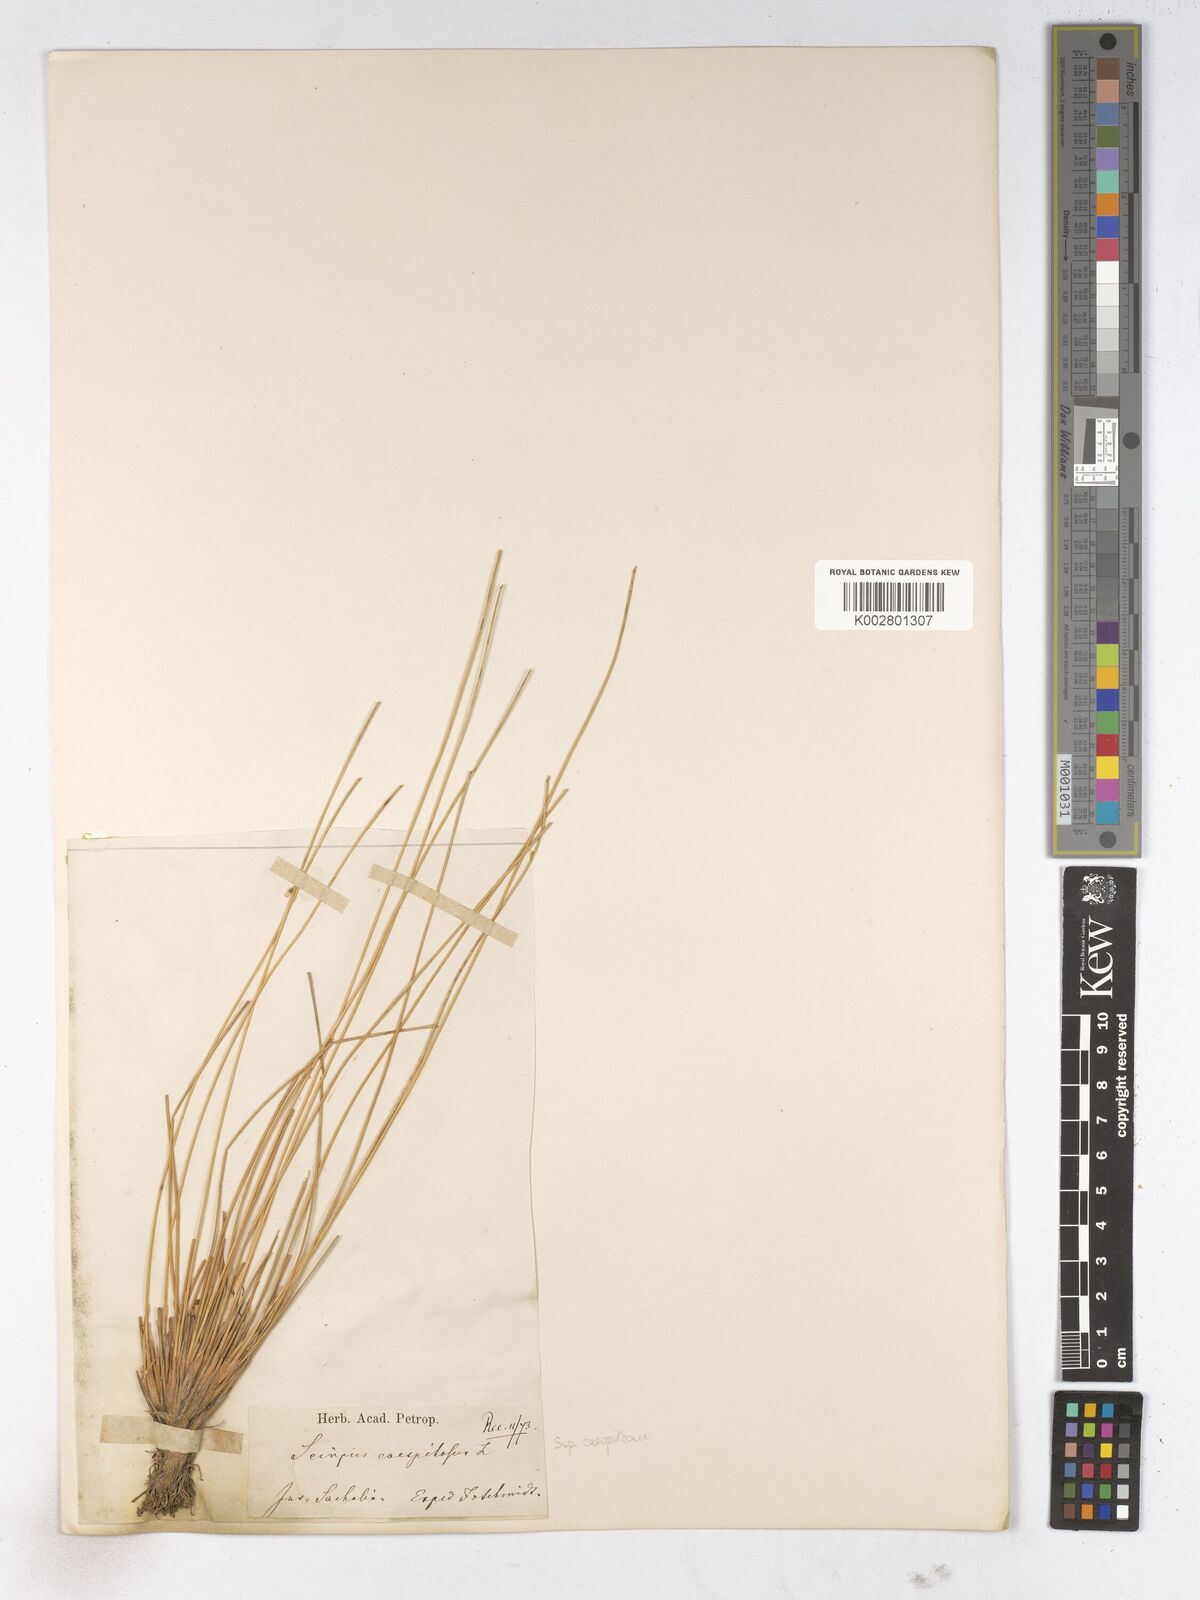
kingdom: Plantae
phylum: Tracheophyta
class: Liliopsida
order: Poales
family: Cyperaceae
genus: Trichophorum
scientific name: Trichophorum cespitosum
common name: Cespitose bulrush
